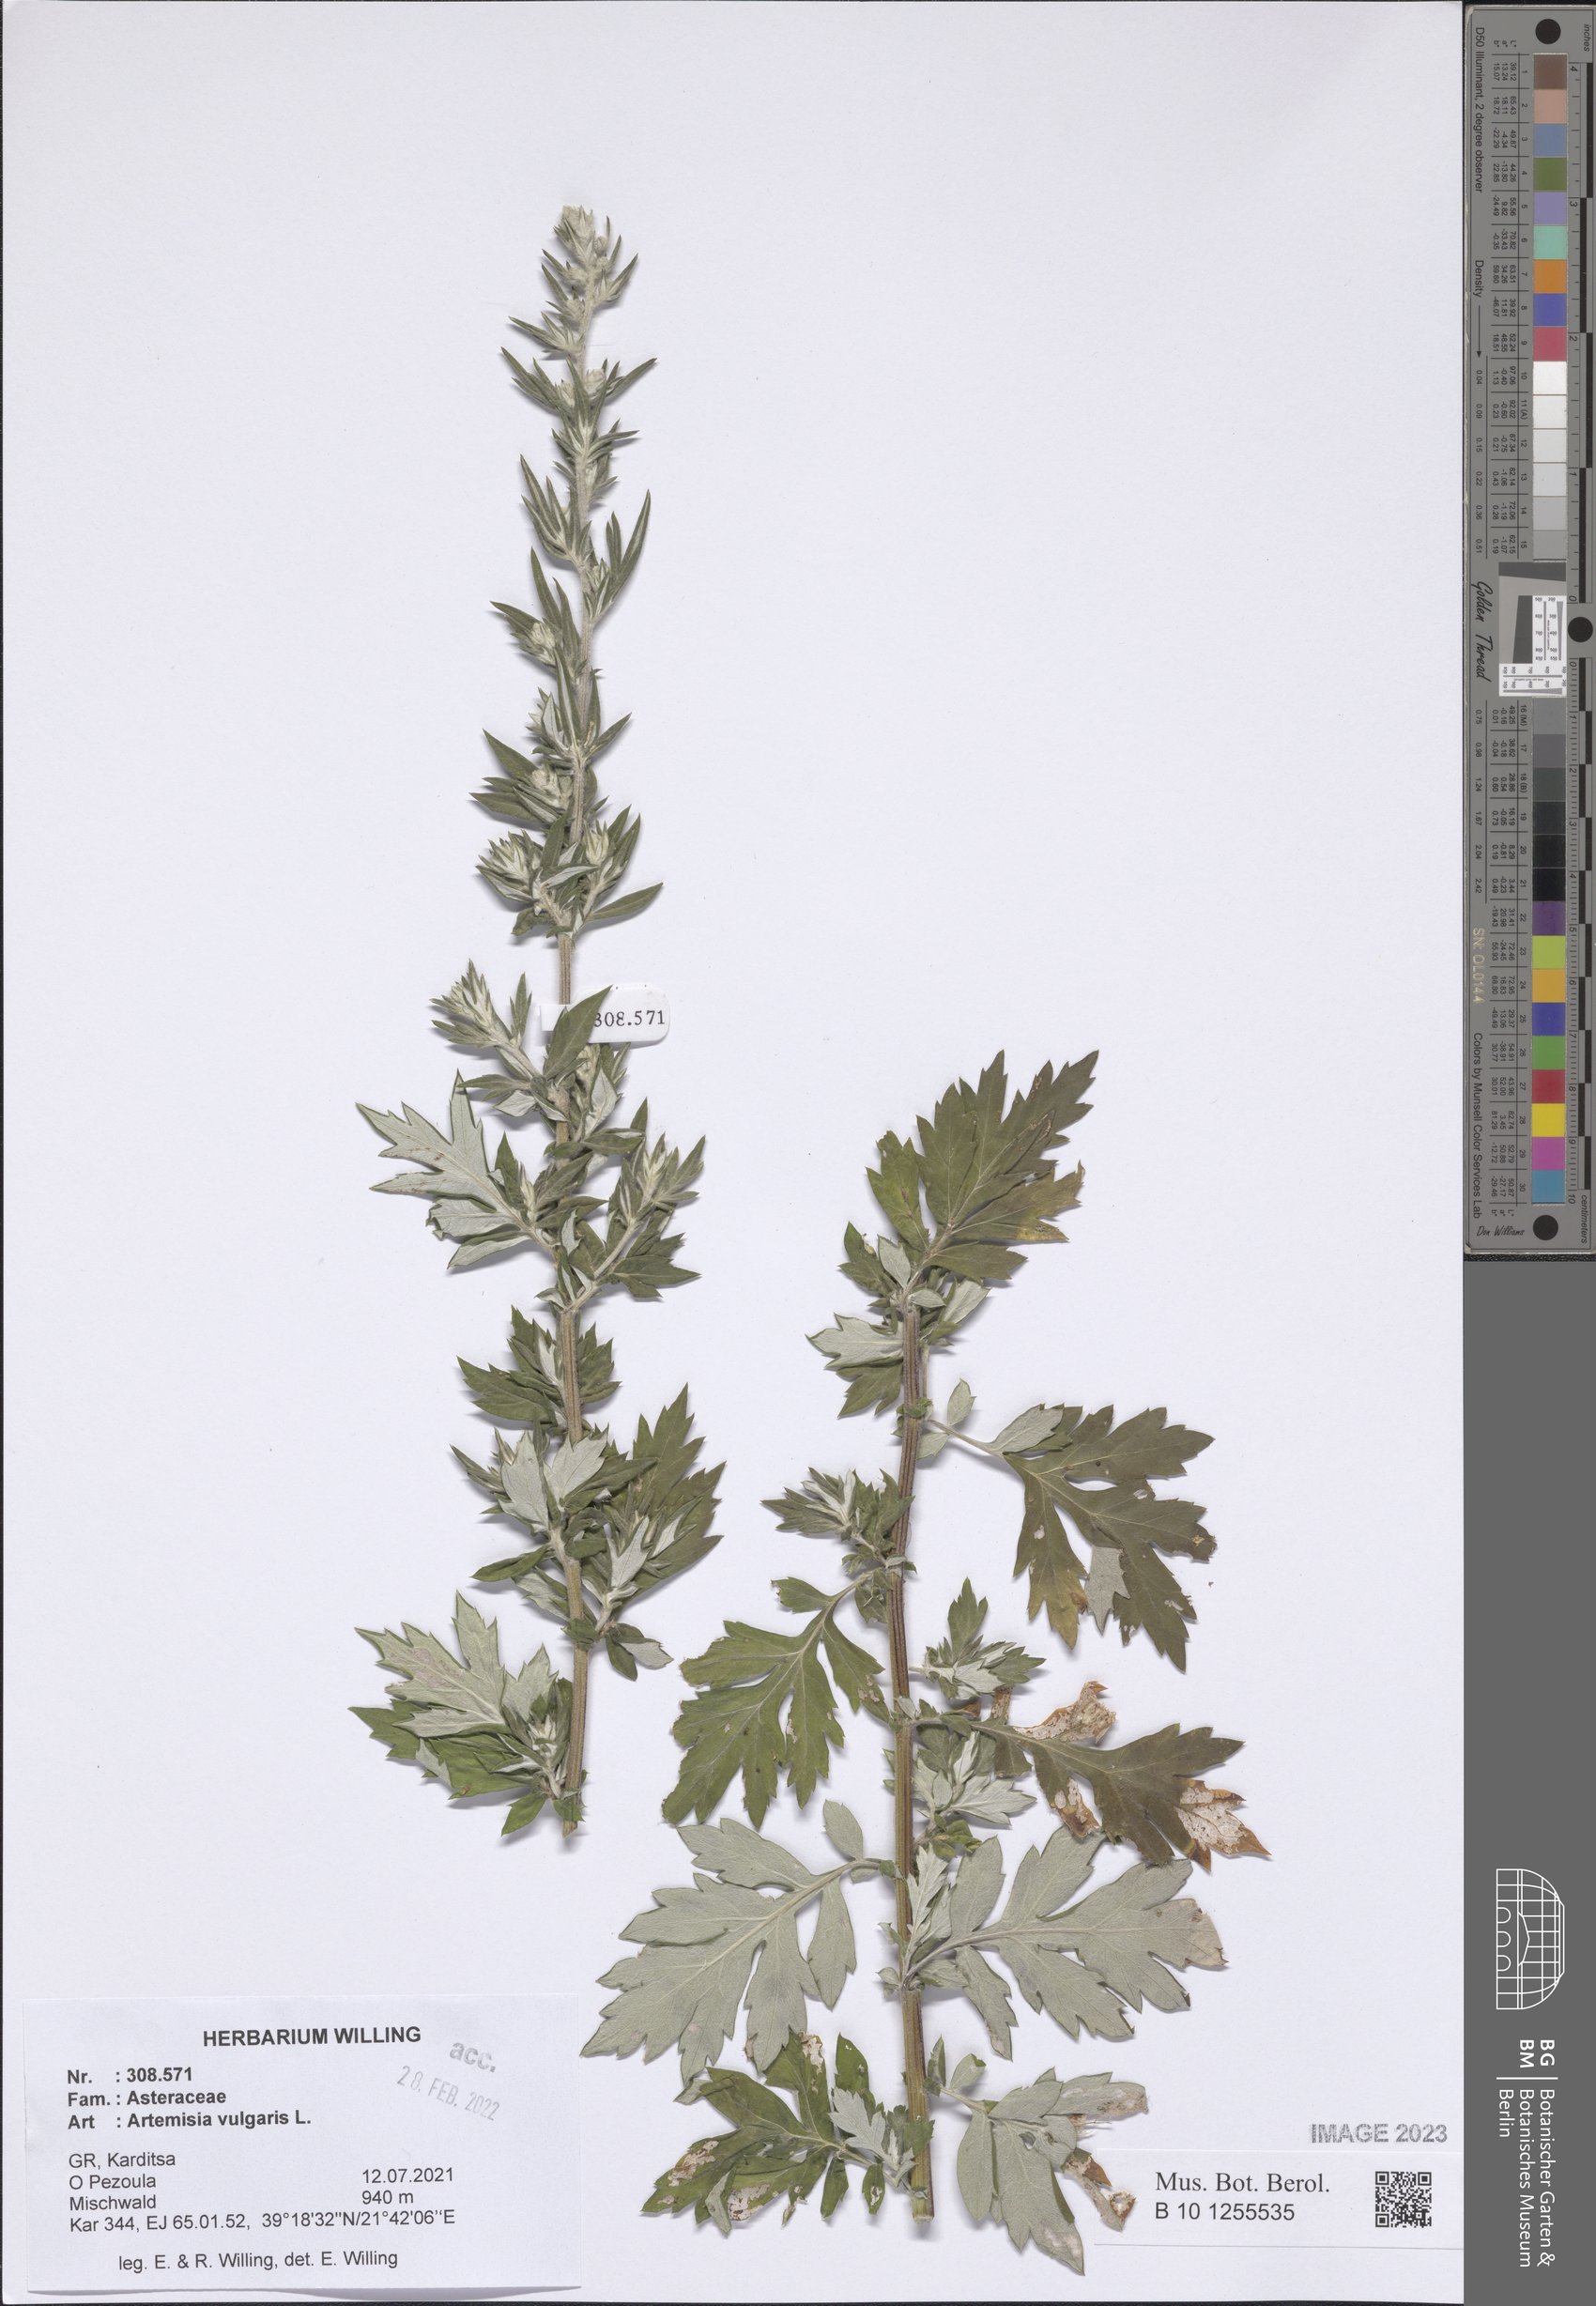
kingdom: Plantae
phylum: Tracheophyta
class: Magnoliopsida
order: Asterales
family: Asteraceae
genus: Artemisia
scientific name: Artemisia vulgaris
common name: Mugwort
